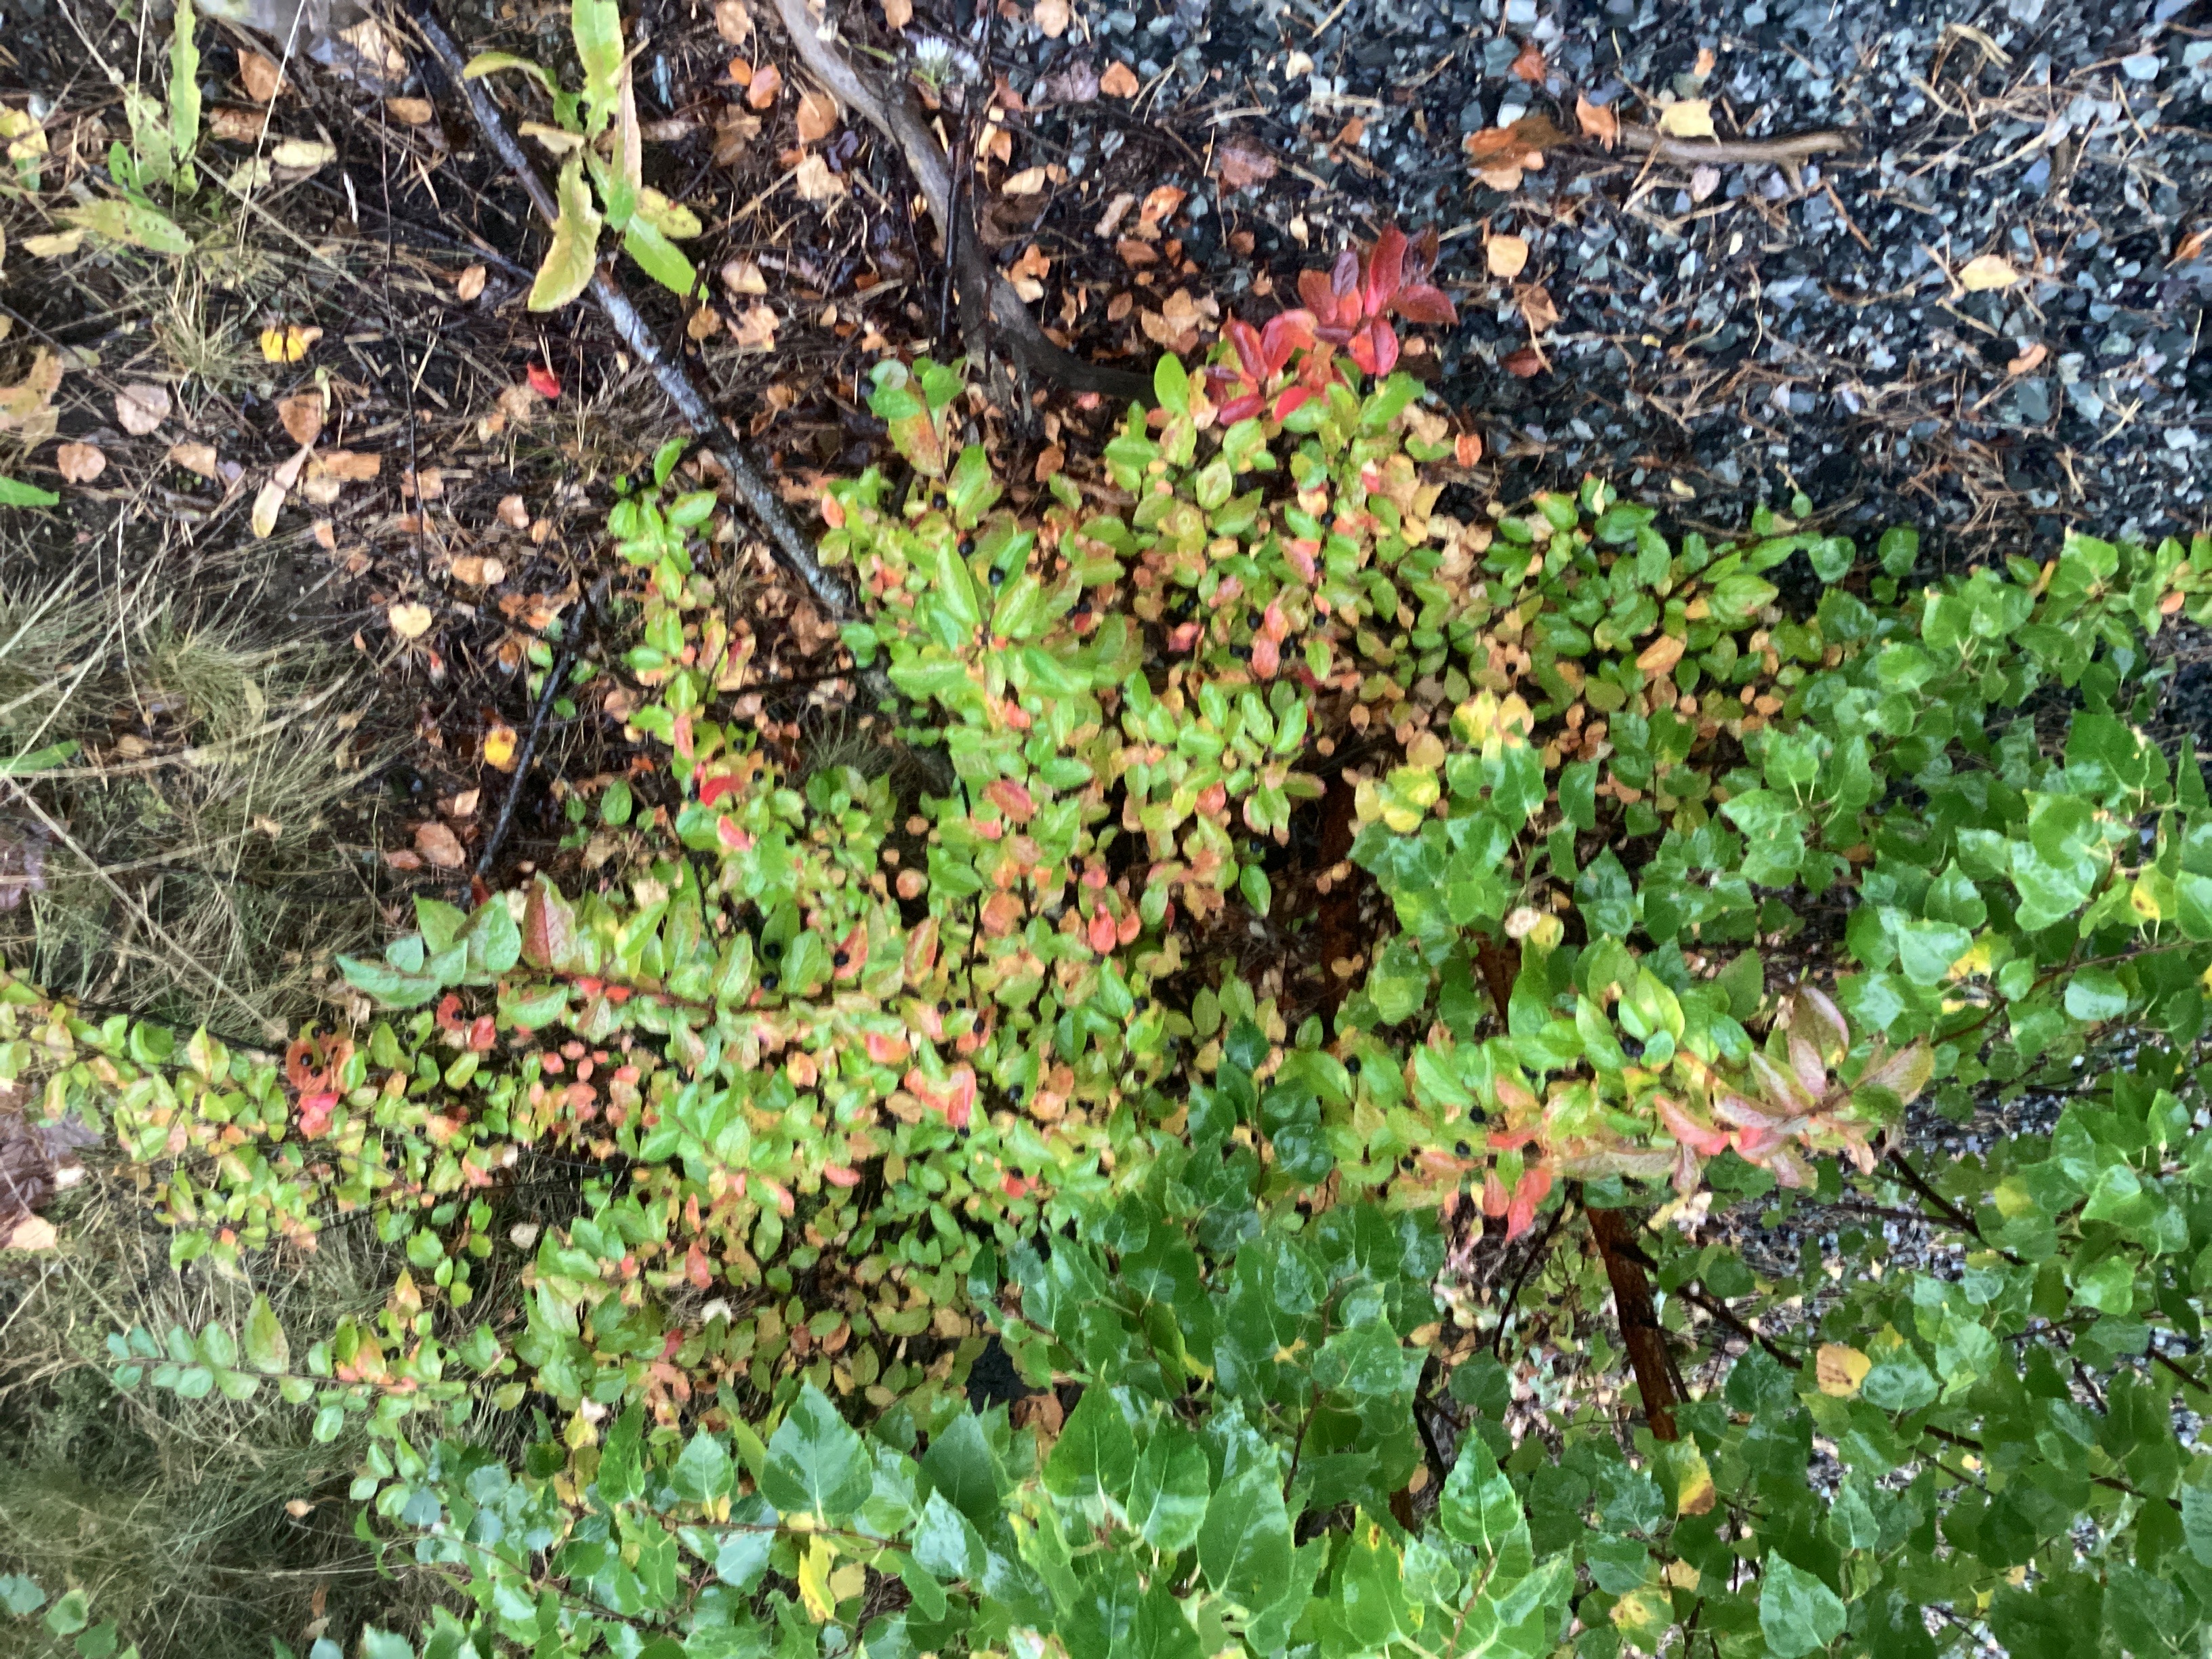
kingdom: Plantae
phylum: Tracheophyta
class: Magnoliopsida
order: Rosales
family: Rosaceae
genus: Cotoneaster
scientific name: Cotoneaster acutifolius
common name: blankmispel
